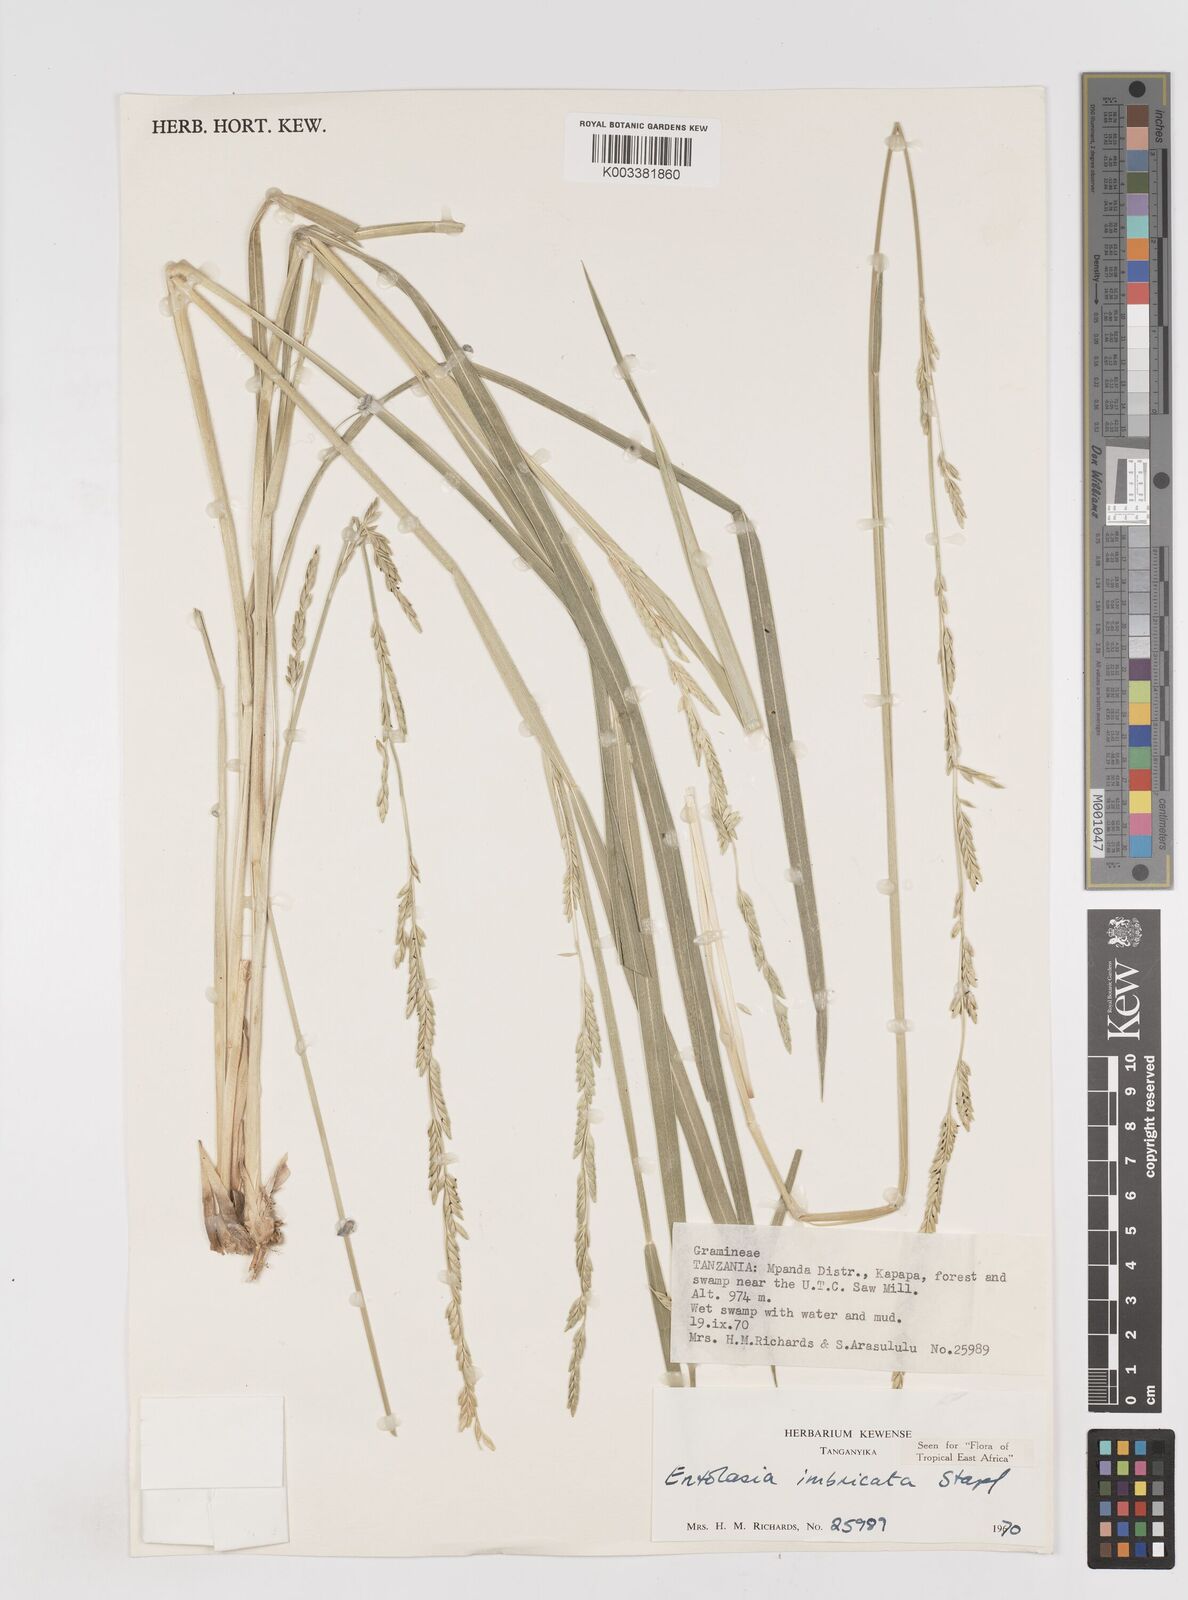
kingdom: Plantae
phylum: Tracheophyta
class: Liliopsida
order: Poales
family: Poaceae
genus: Entolasia
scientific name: Entolasia imbricata
